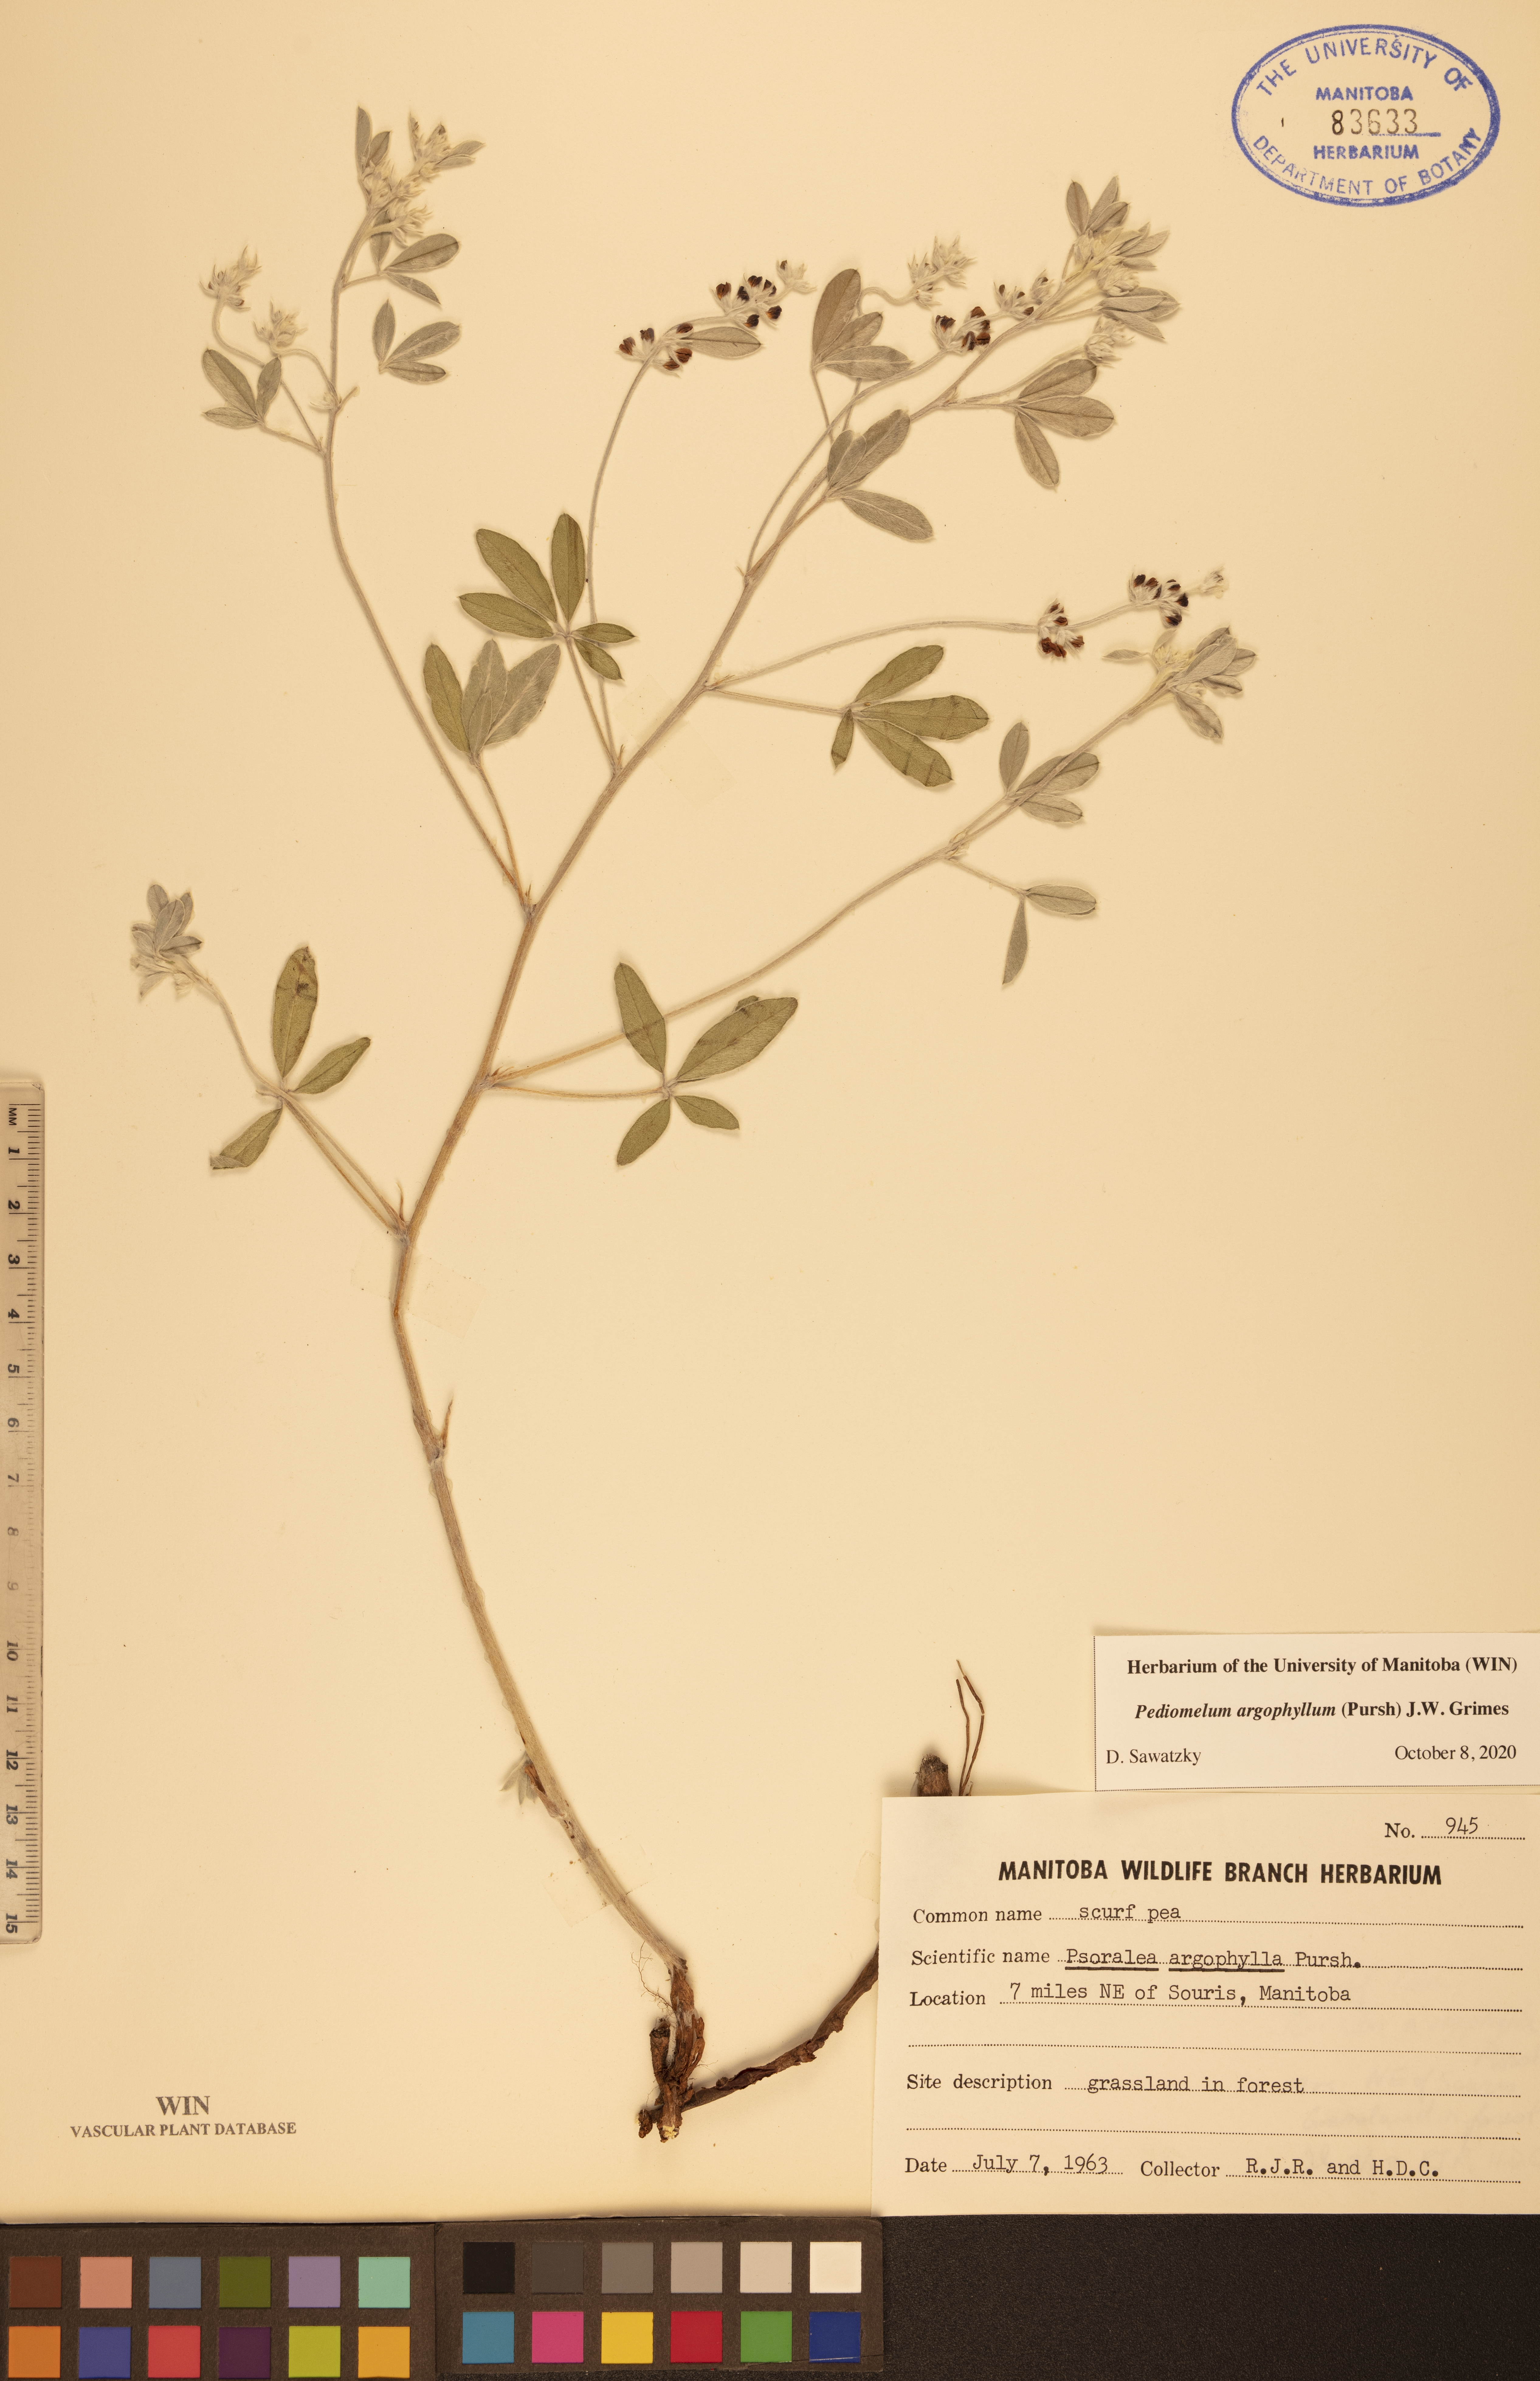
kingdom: Plantae
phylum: Tracheophyta
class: Magnoliopsida
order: Fabales
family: Fabaceae
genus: Pediomelum
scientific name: Pediomelum argophyllum
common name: Silver-leaved indian breadroot
